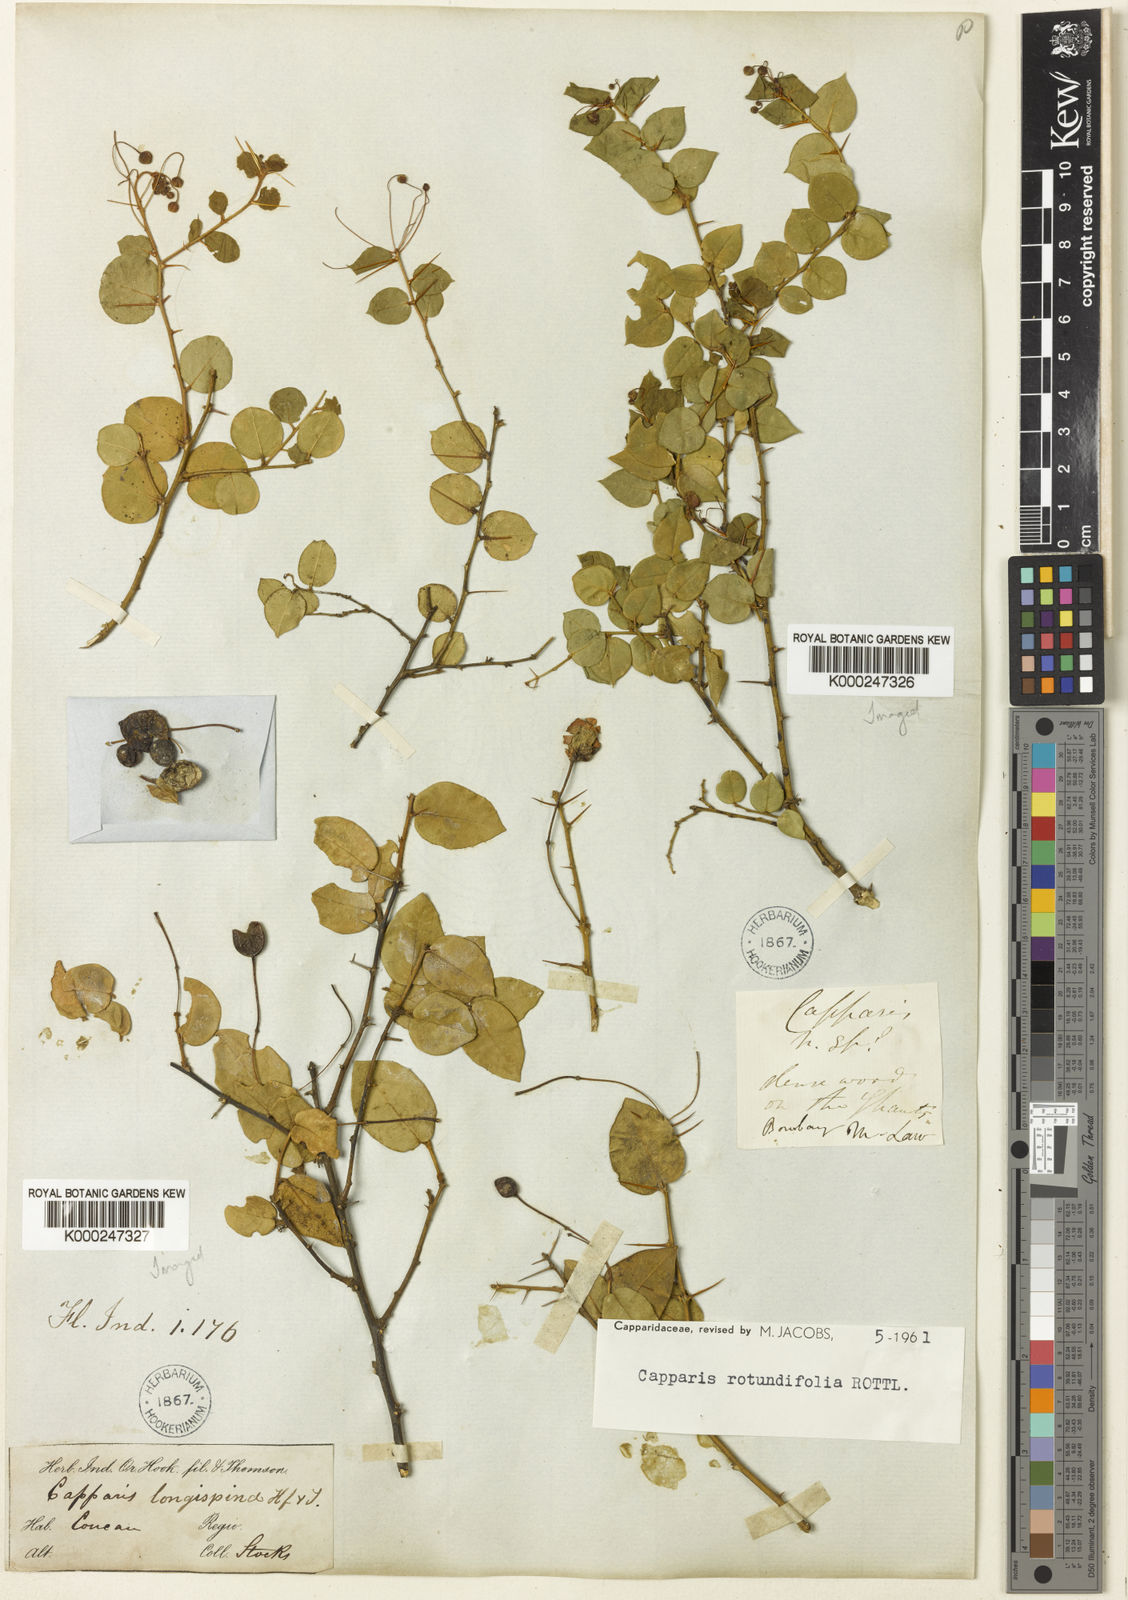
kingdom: Plantae
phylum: Tracheophyta
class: Magnoliopsida
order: Brassicales
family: Capparaceae
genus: Capparis
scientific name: Capparis rotundifolia
